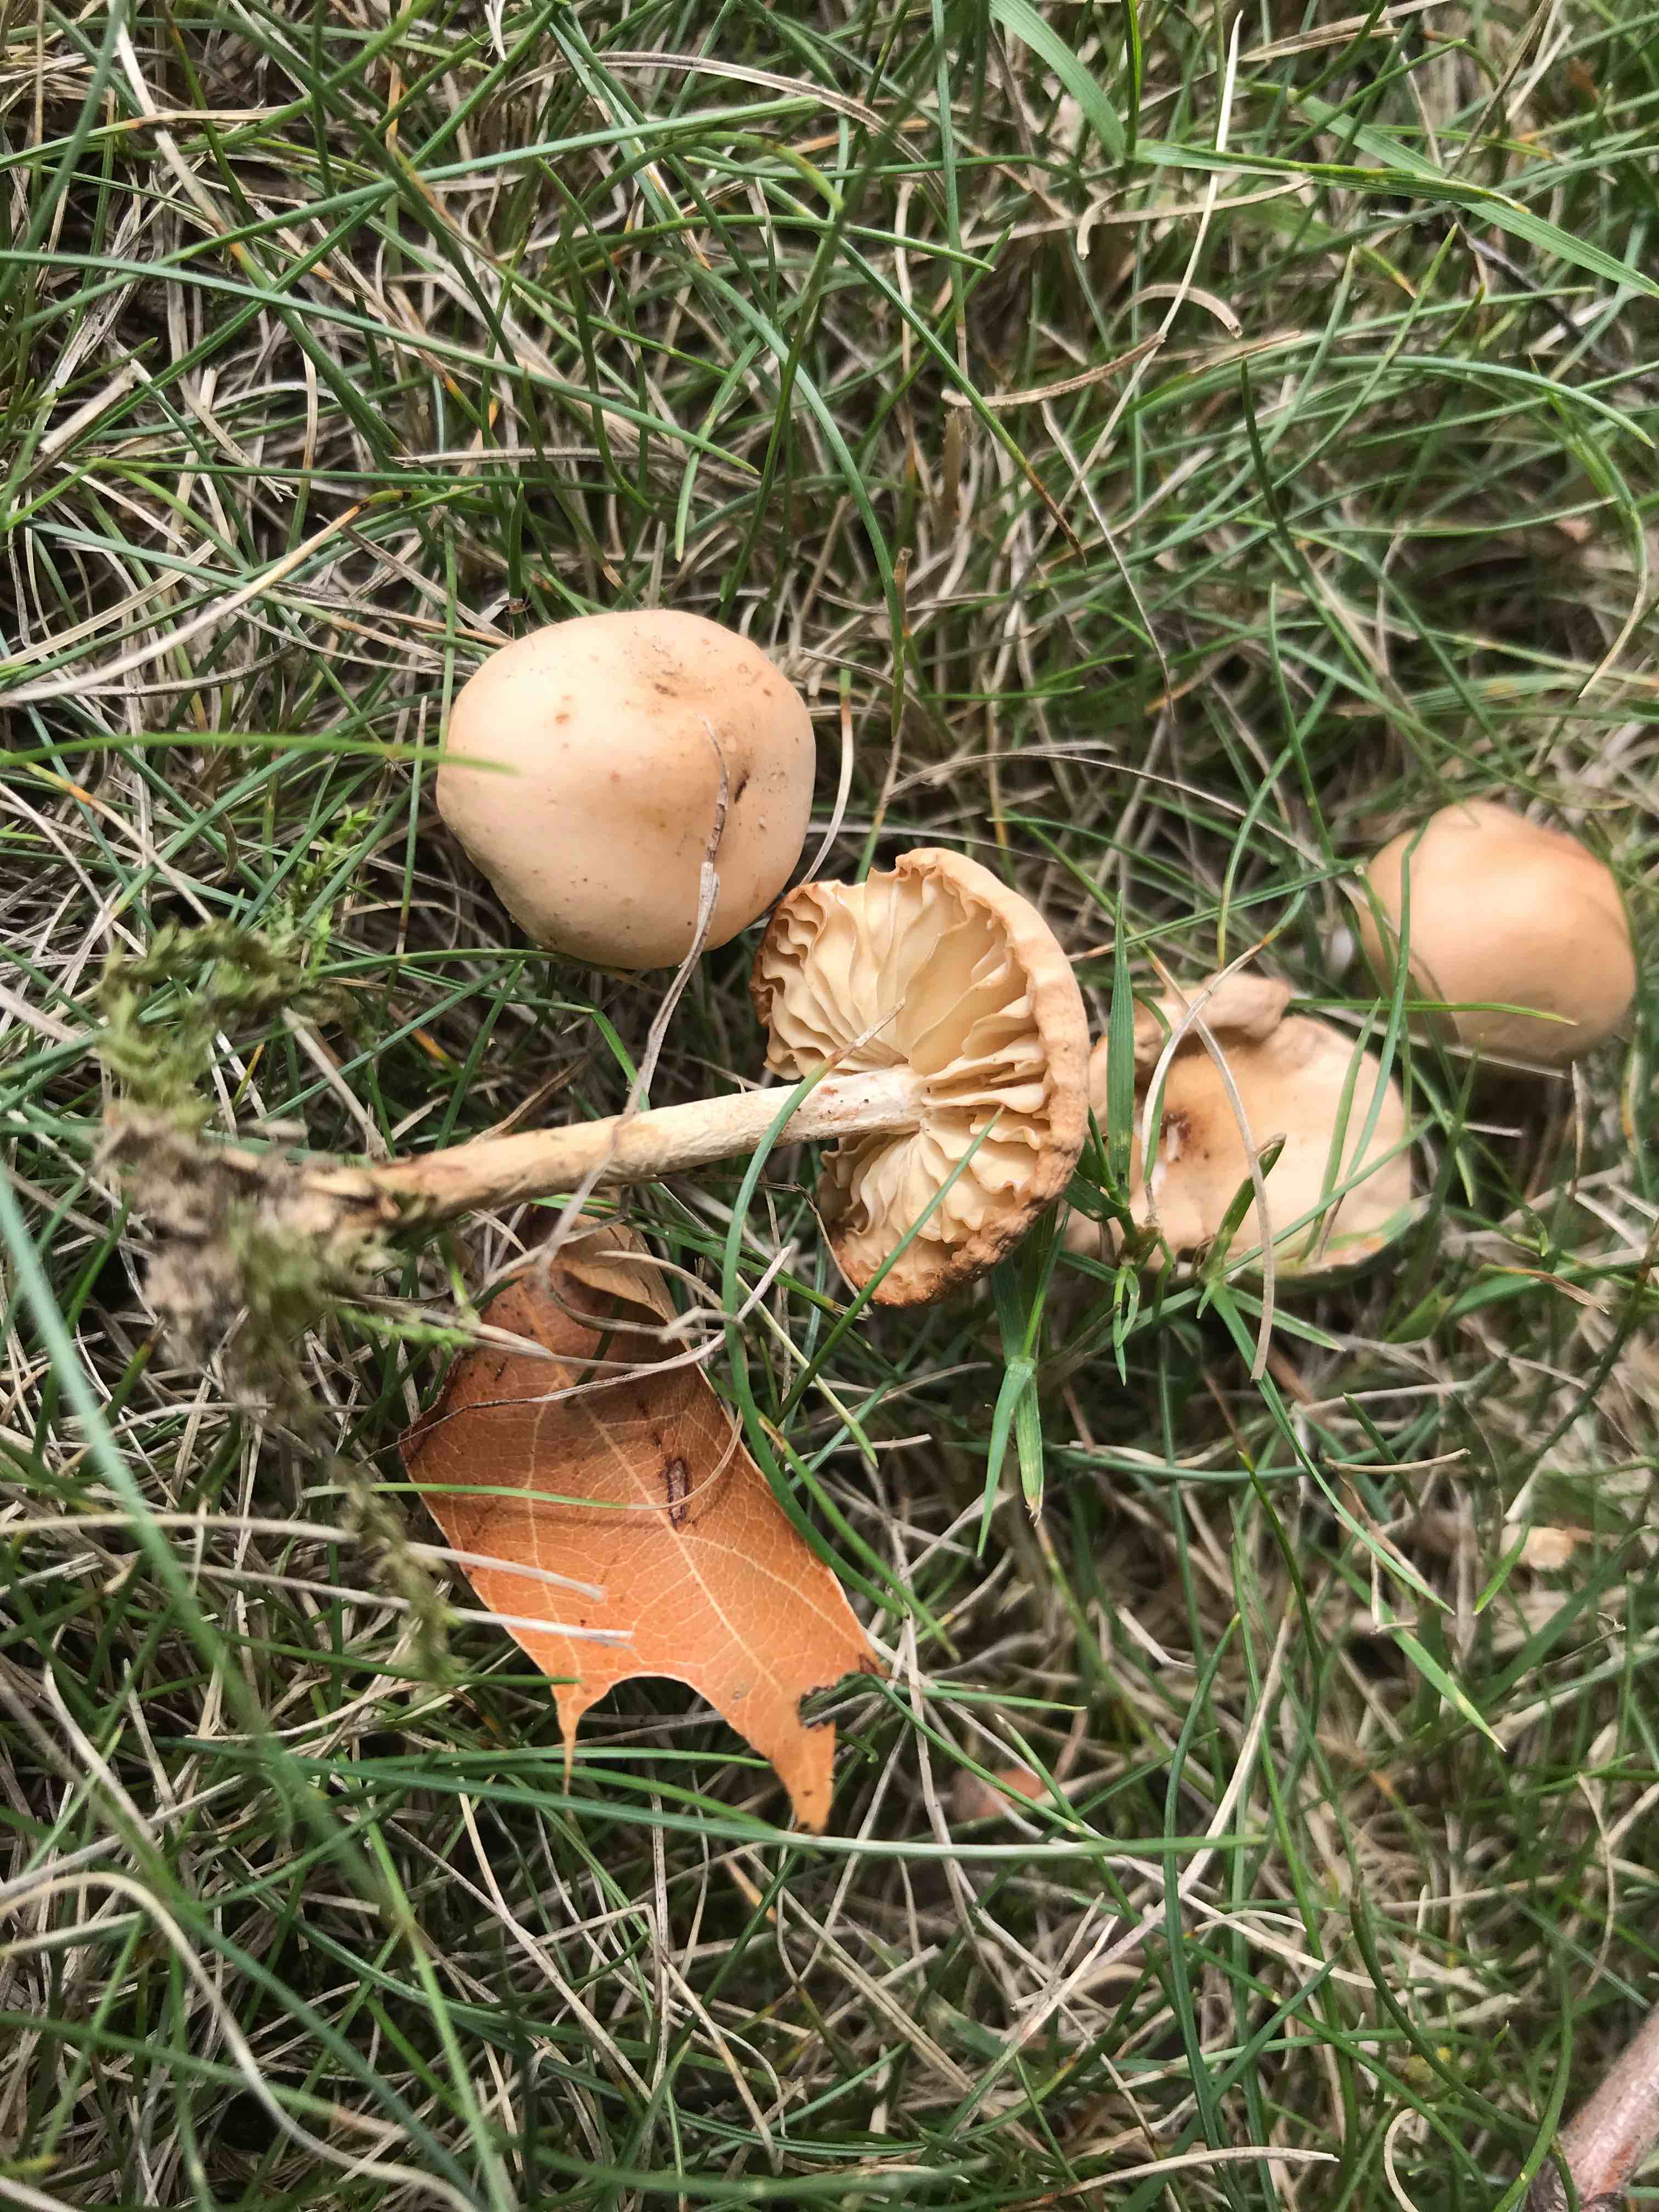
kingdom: Fungi
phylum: Basidiomycota
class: Agaricomycetes
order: Agaricales
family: Marasmiaceae
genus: Marasmius
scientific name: Marasmius oreades
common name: elledans-bruskhat
